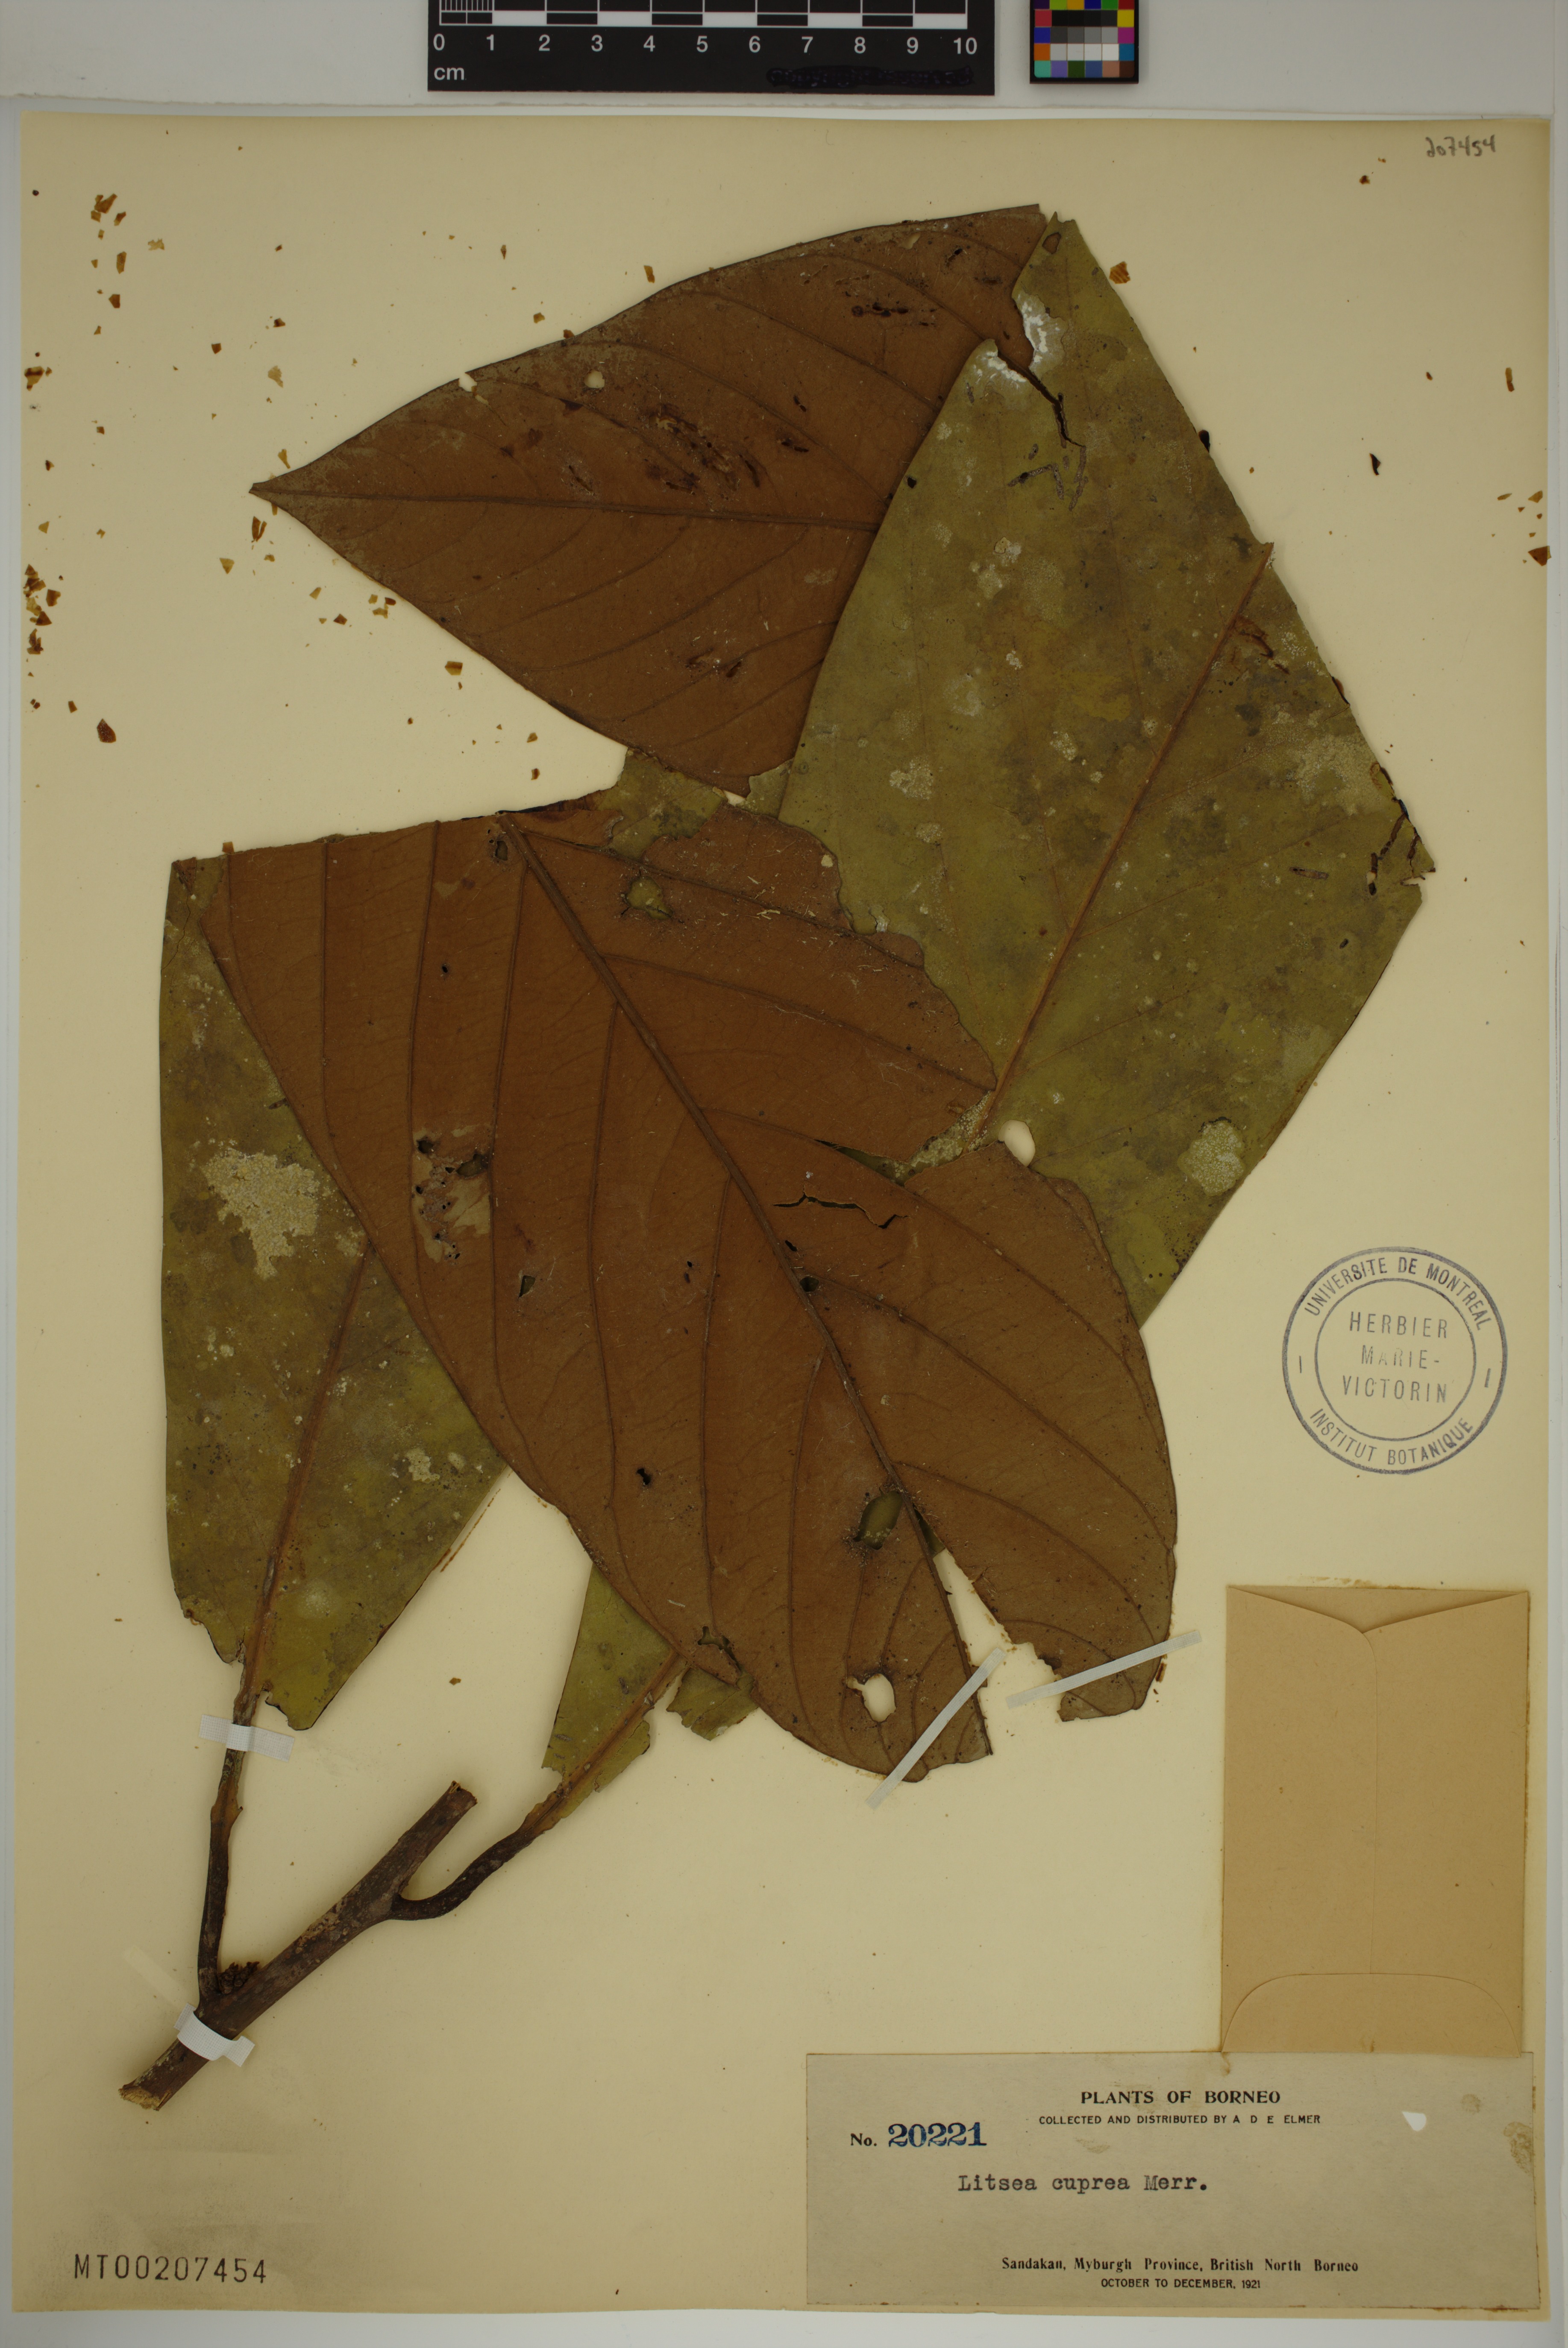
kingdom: Plantae
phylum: Tracheophyta
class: Magnoliopsida
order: Laurales
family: Lauraceae
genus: Litsea
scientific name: Litsea cuprea
